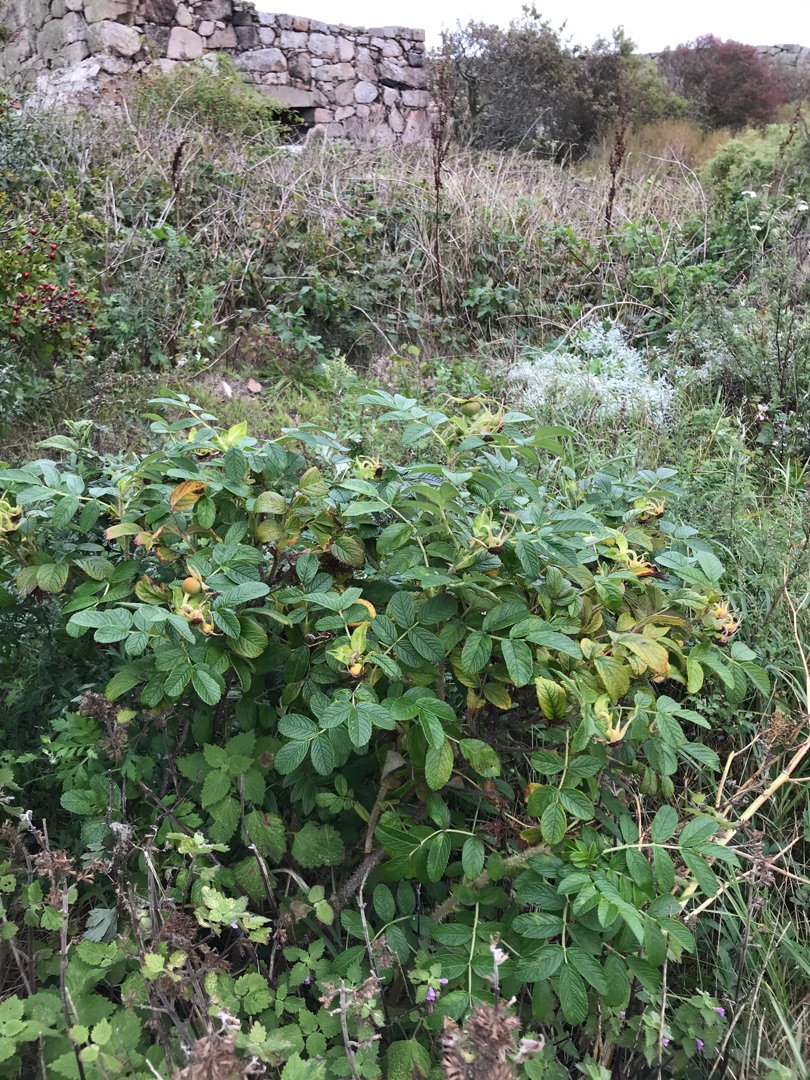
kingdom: Plantae
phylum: Tracheophyta
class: Magnoliopsida
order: Rosales
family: Rosaceae
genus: Rosa
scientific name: Rosa rugosa
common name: Rynket rose
